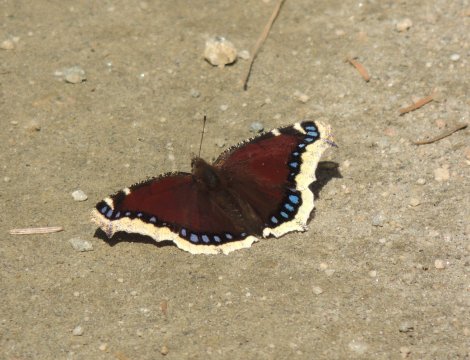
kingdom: Animalia
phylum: Arthropoda
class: Insecta
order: Lepidoptera
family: Nymphalidae
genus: Nymphalis
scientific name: Nymphalis antiopa
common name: Mourning Cloak
